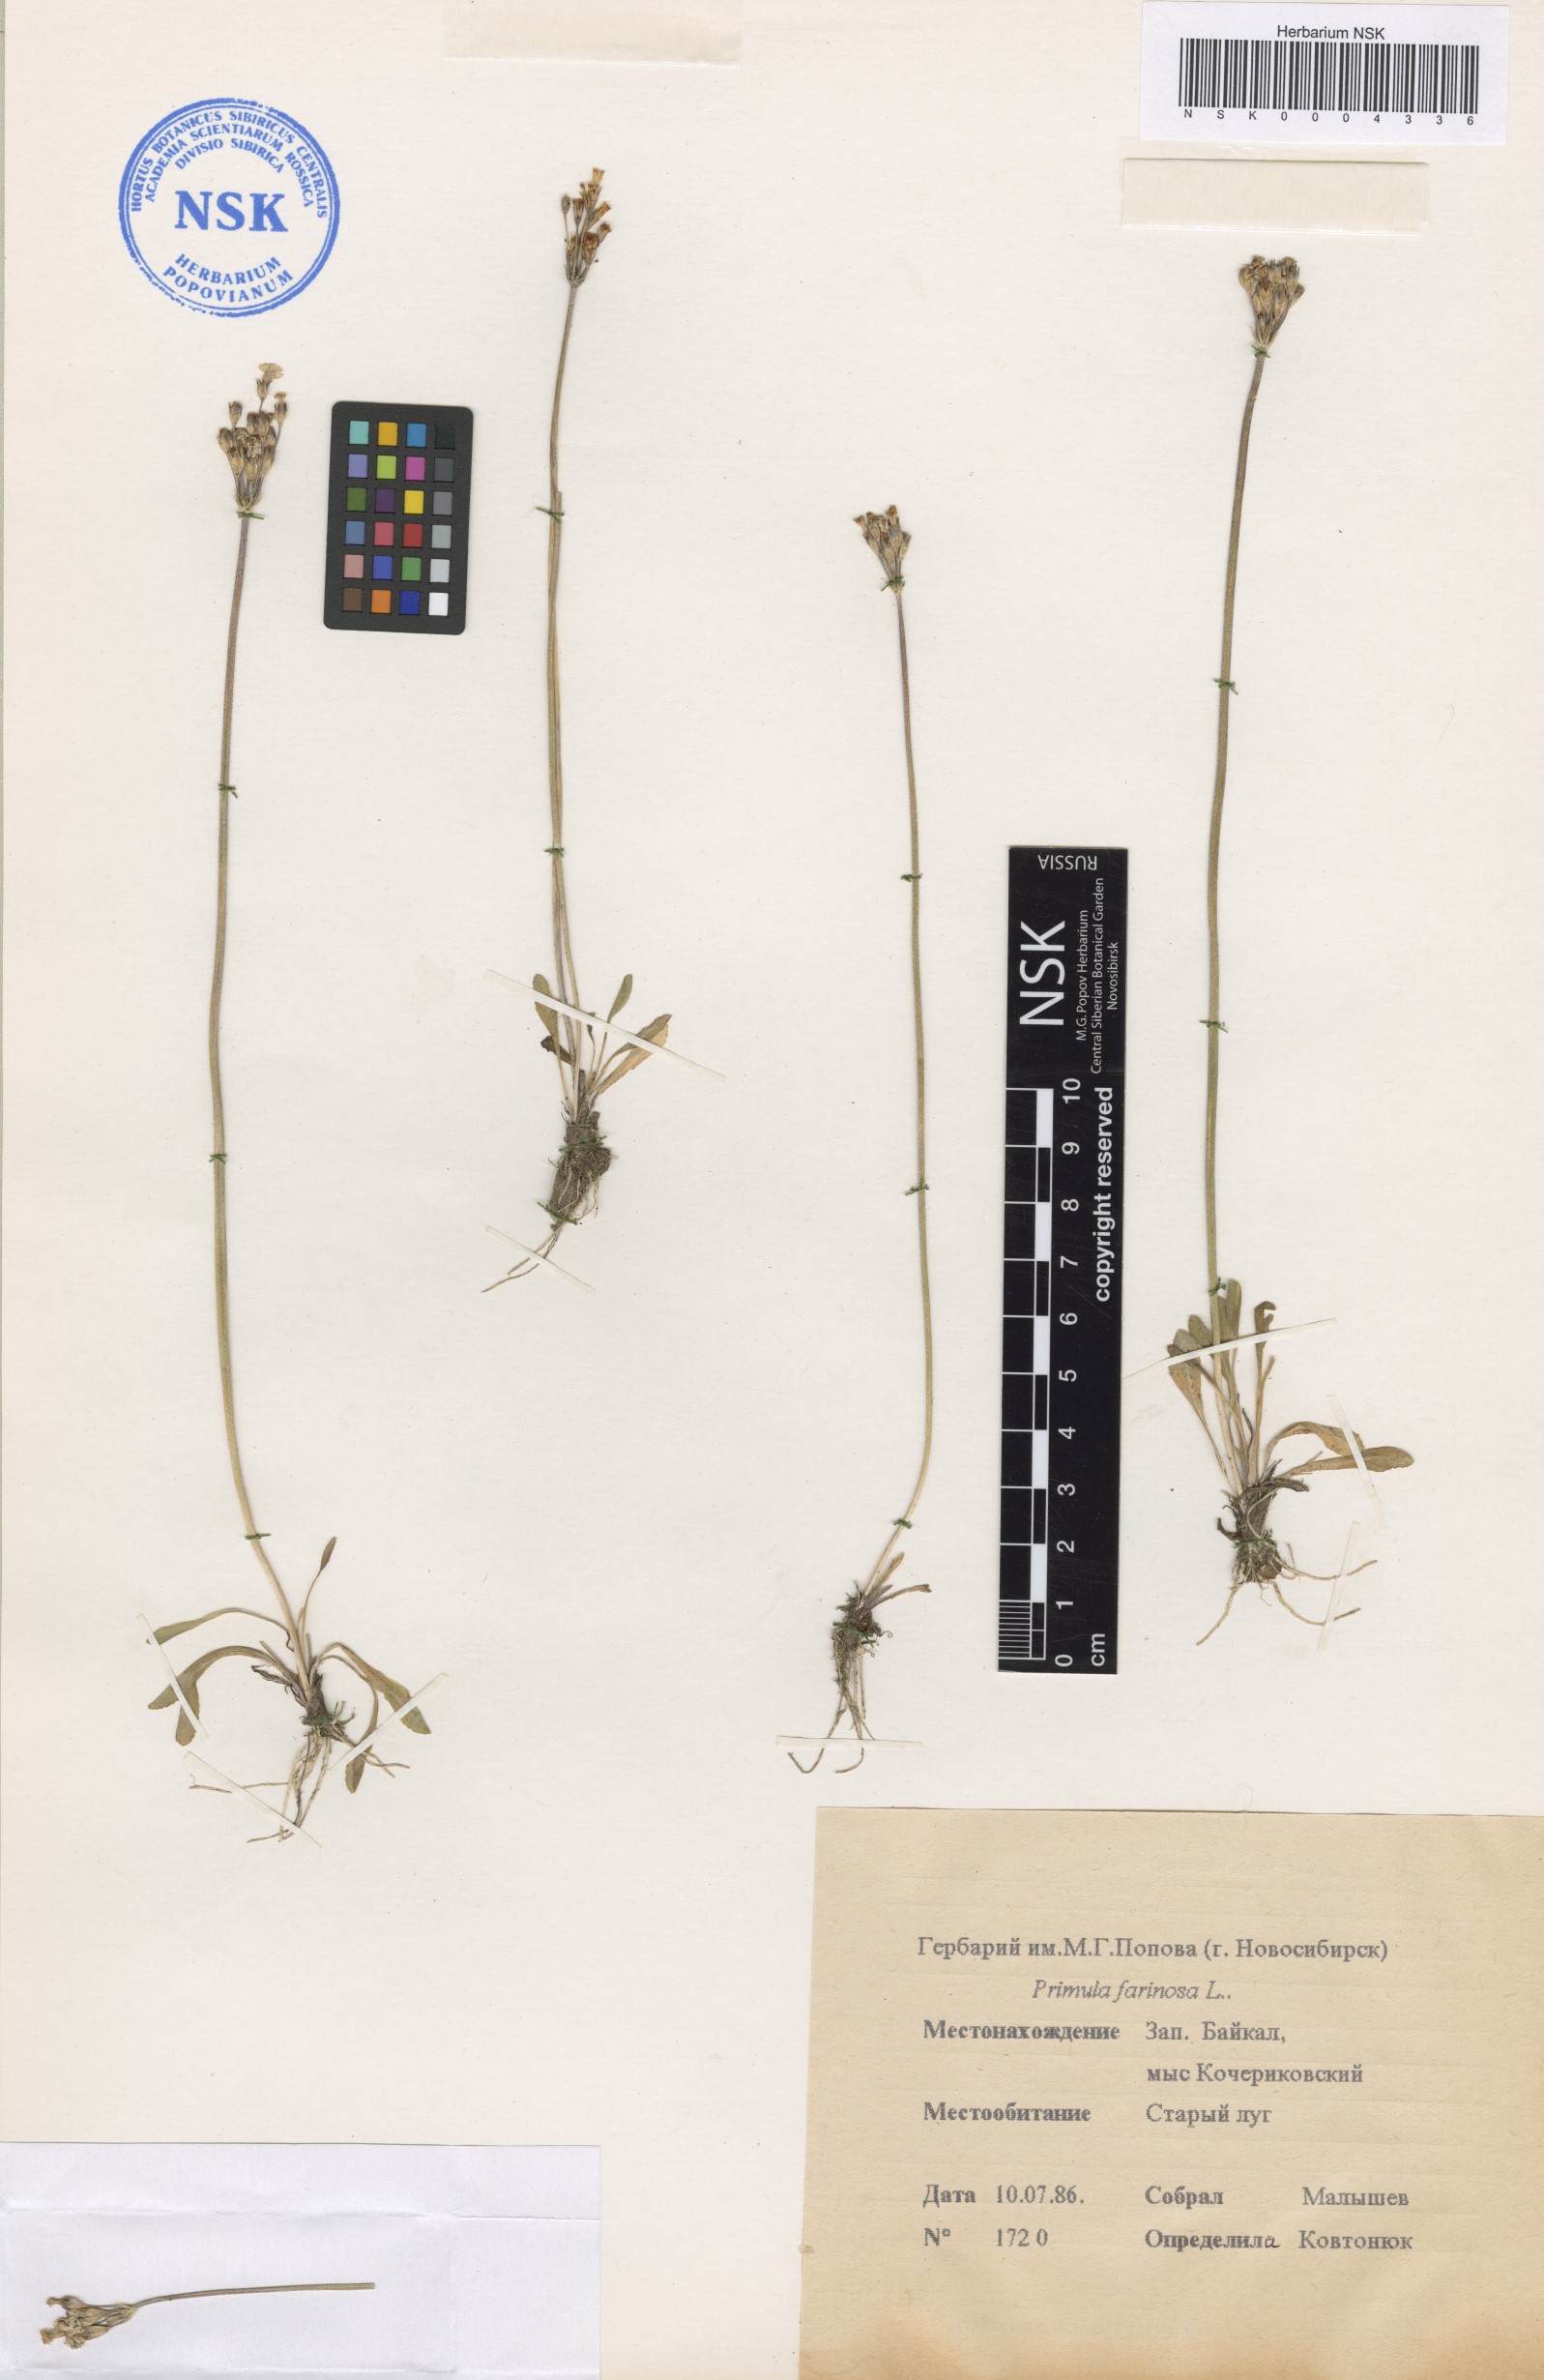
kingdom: Plantae
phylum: Tracheophyta
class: Magnoliopsida
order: Ericales
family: Primulaceae
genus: Primula
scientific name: Primula farinosa
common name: Bird's-eye primrose
